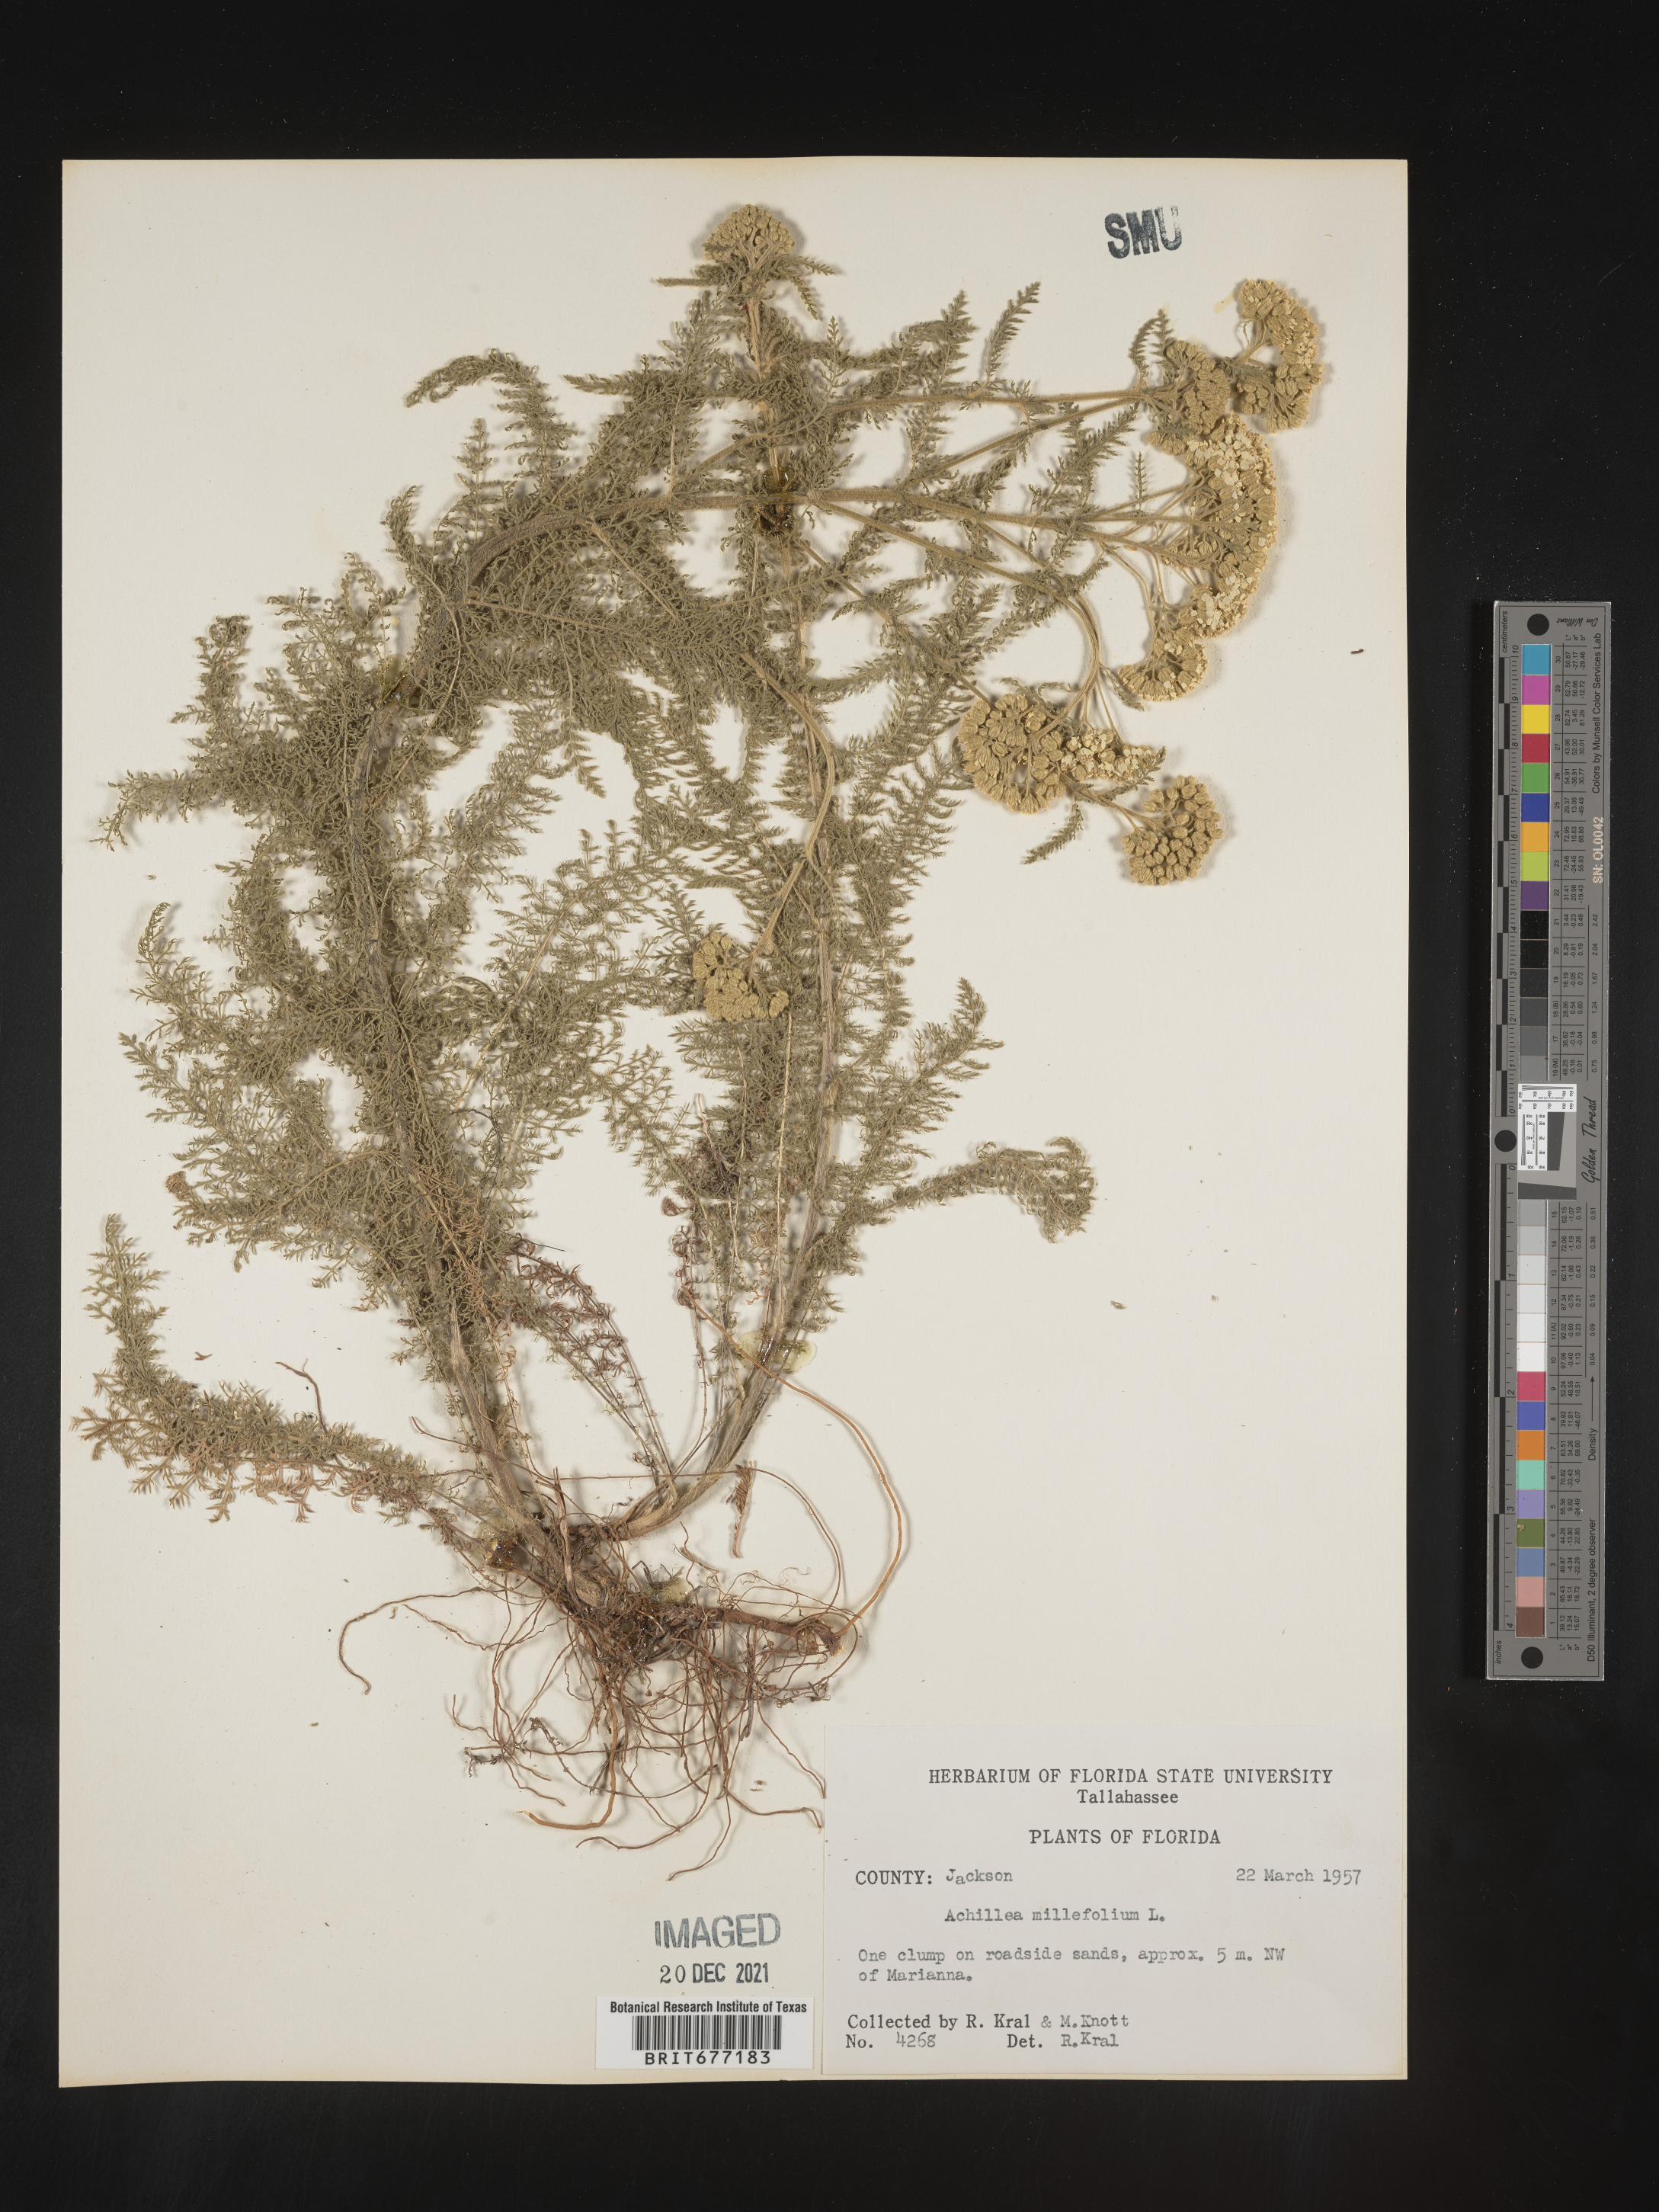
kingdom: Plantae
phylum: Tracheophyta
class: Magnoliopsida
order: Asterales
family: Asteraceae
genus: Achillea
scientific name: Achillea millefolium
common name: Yarrow
